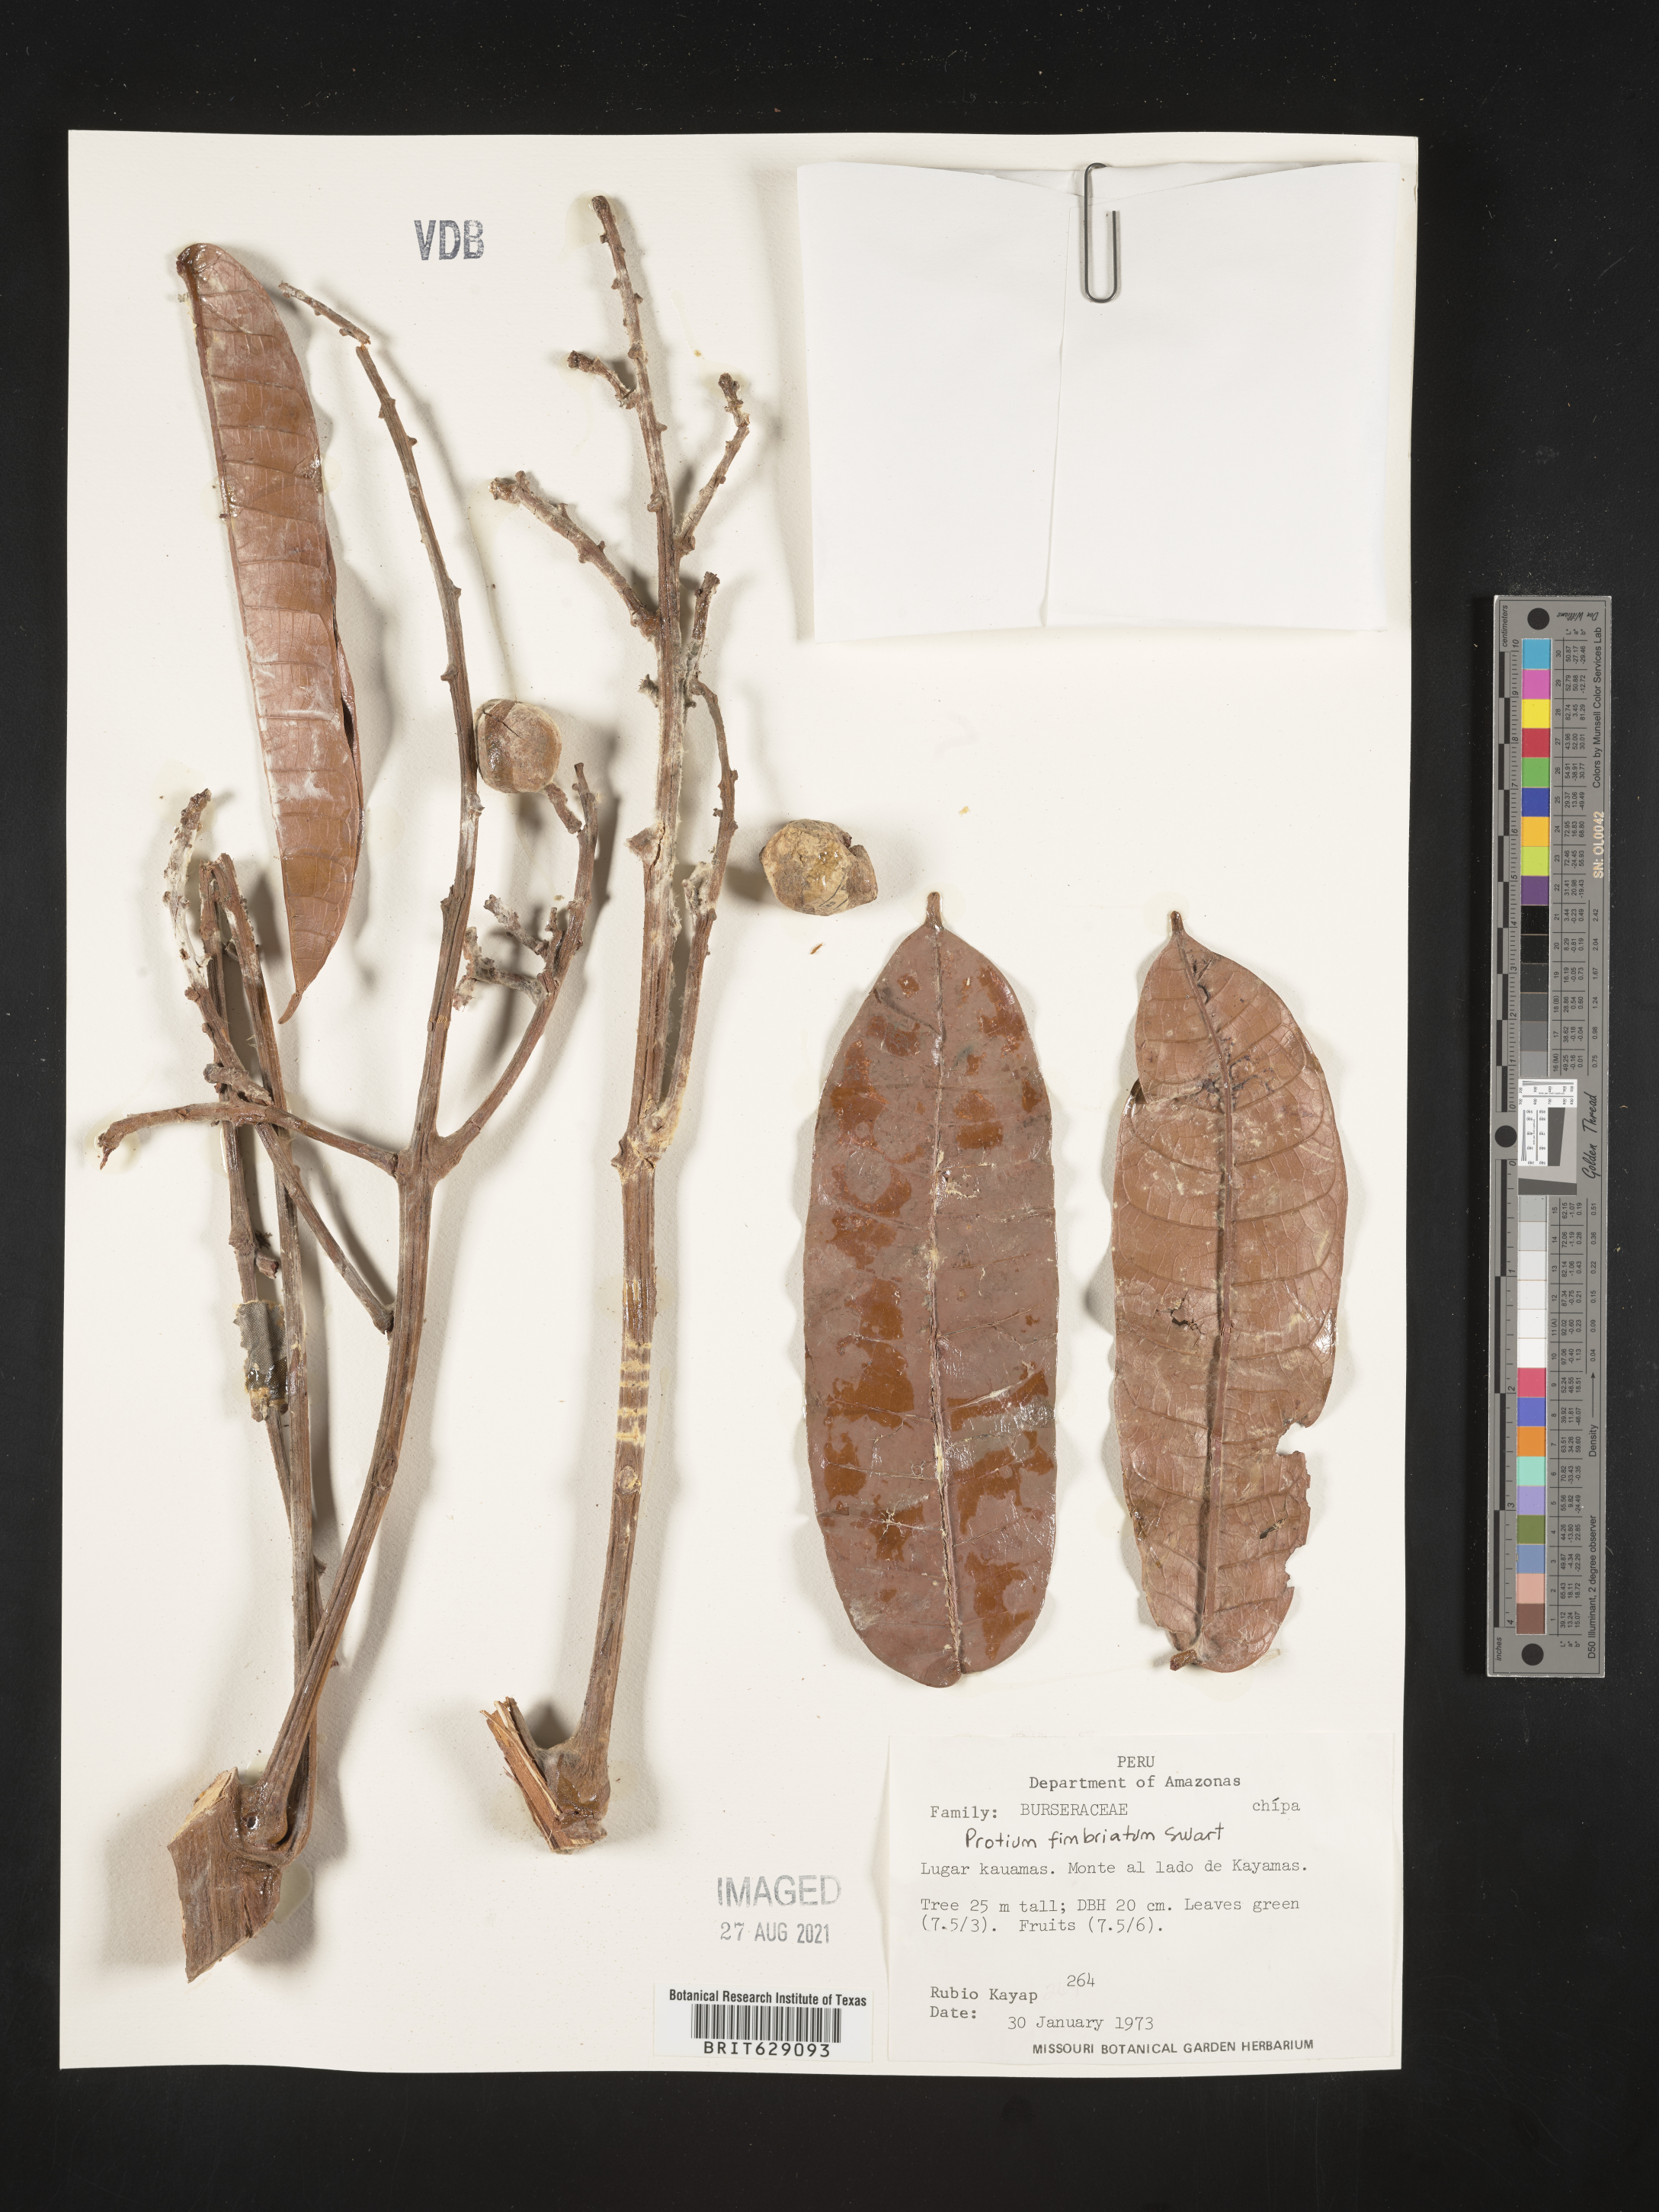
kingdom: Plantae
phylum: Tracheophyta
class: Magnoliopsida
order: Sapindales
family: Burseraceae
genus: Protium
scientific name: Protium amazonicum
